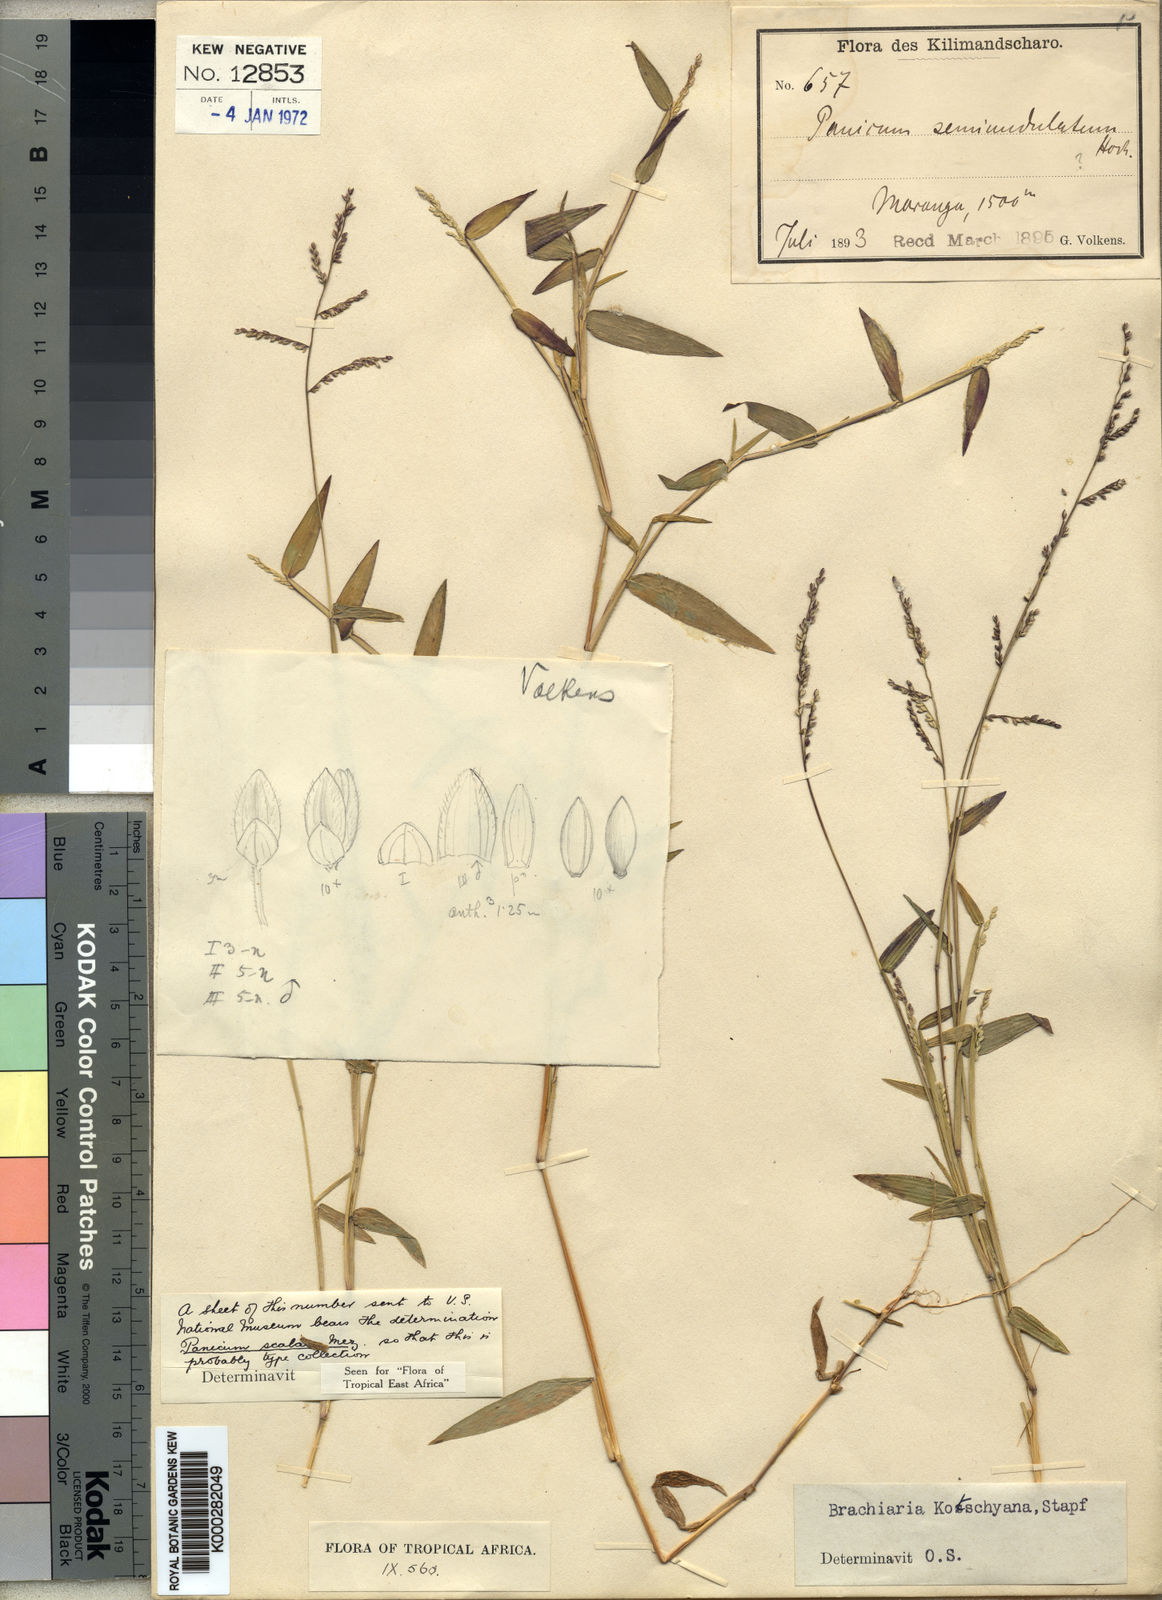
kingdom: Plantae
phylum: Tracheophyta
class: Liliopsida
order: Poales
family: Poaceae
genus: Urochloa
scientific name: Urochloa comata
